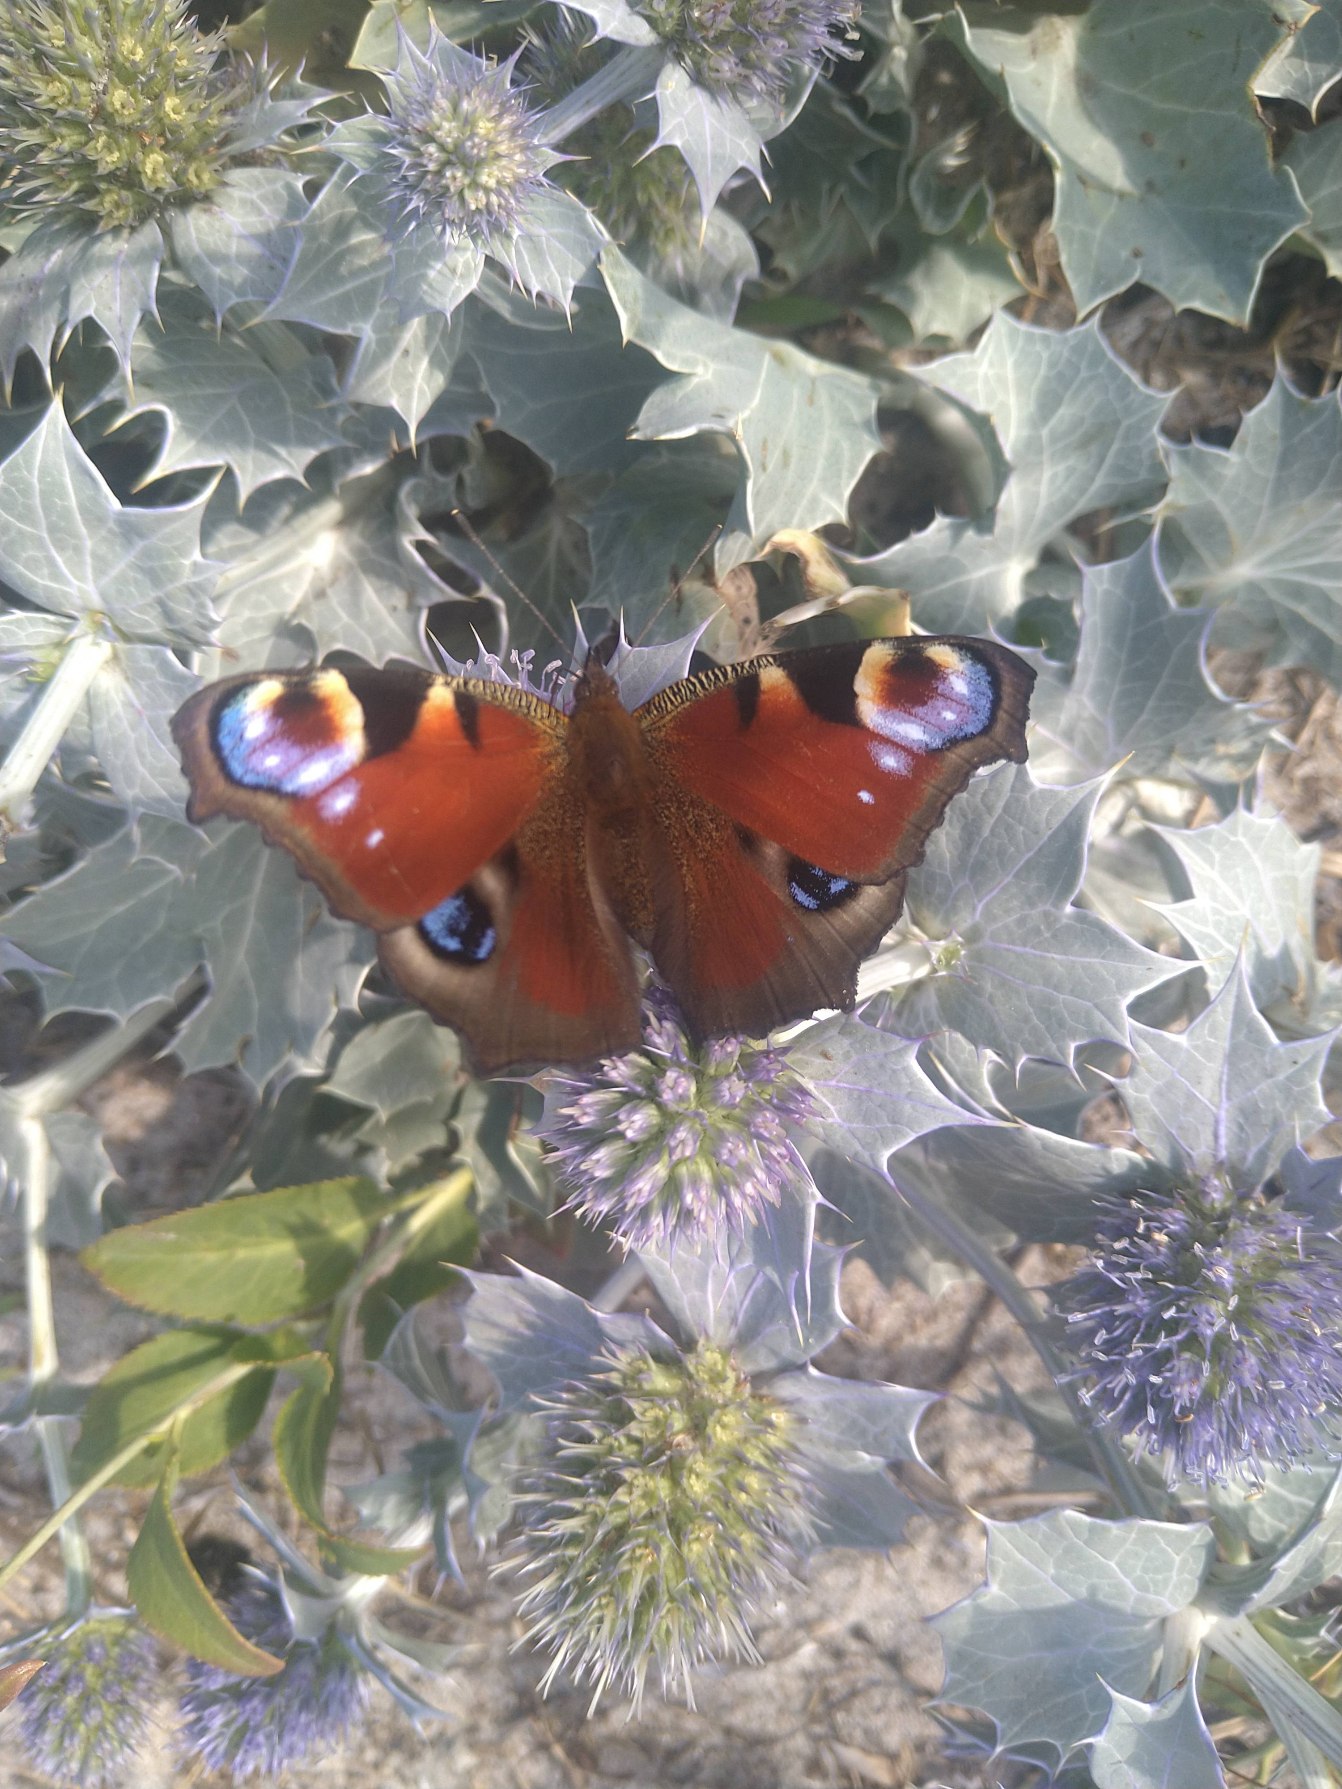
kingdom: Animalia
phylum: Arthropoda
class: Insecta
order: Lepidoptera
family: Nymphalidae
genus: Aglais
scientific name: Aglais io
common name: Dagpåfugleøje
